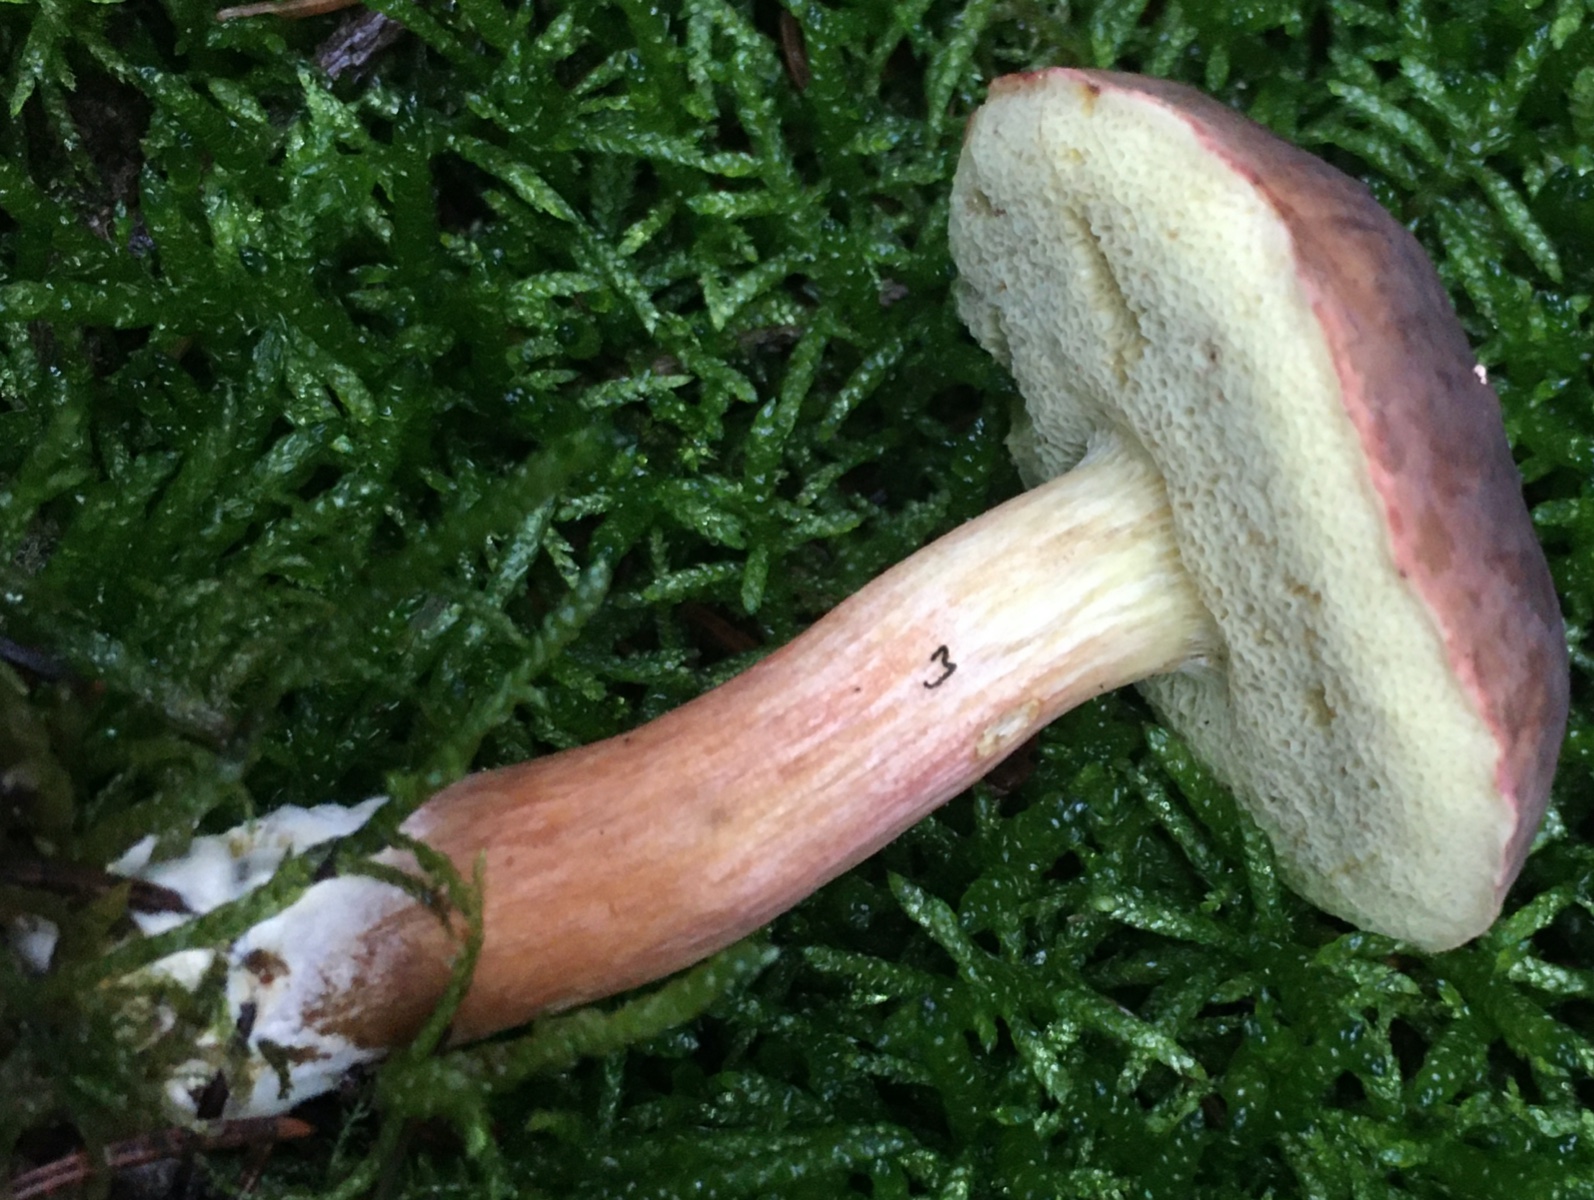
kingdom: Fungi
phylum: Basidiomycota
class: Agaricomycetes
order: Boletales
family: Boletaceae
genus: Xerocomellus
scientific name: Xerocomellus pruinatus
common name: dugget rørhat
